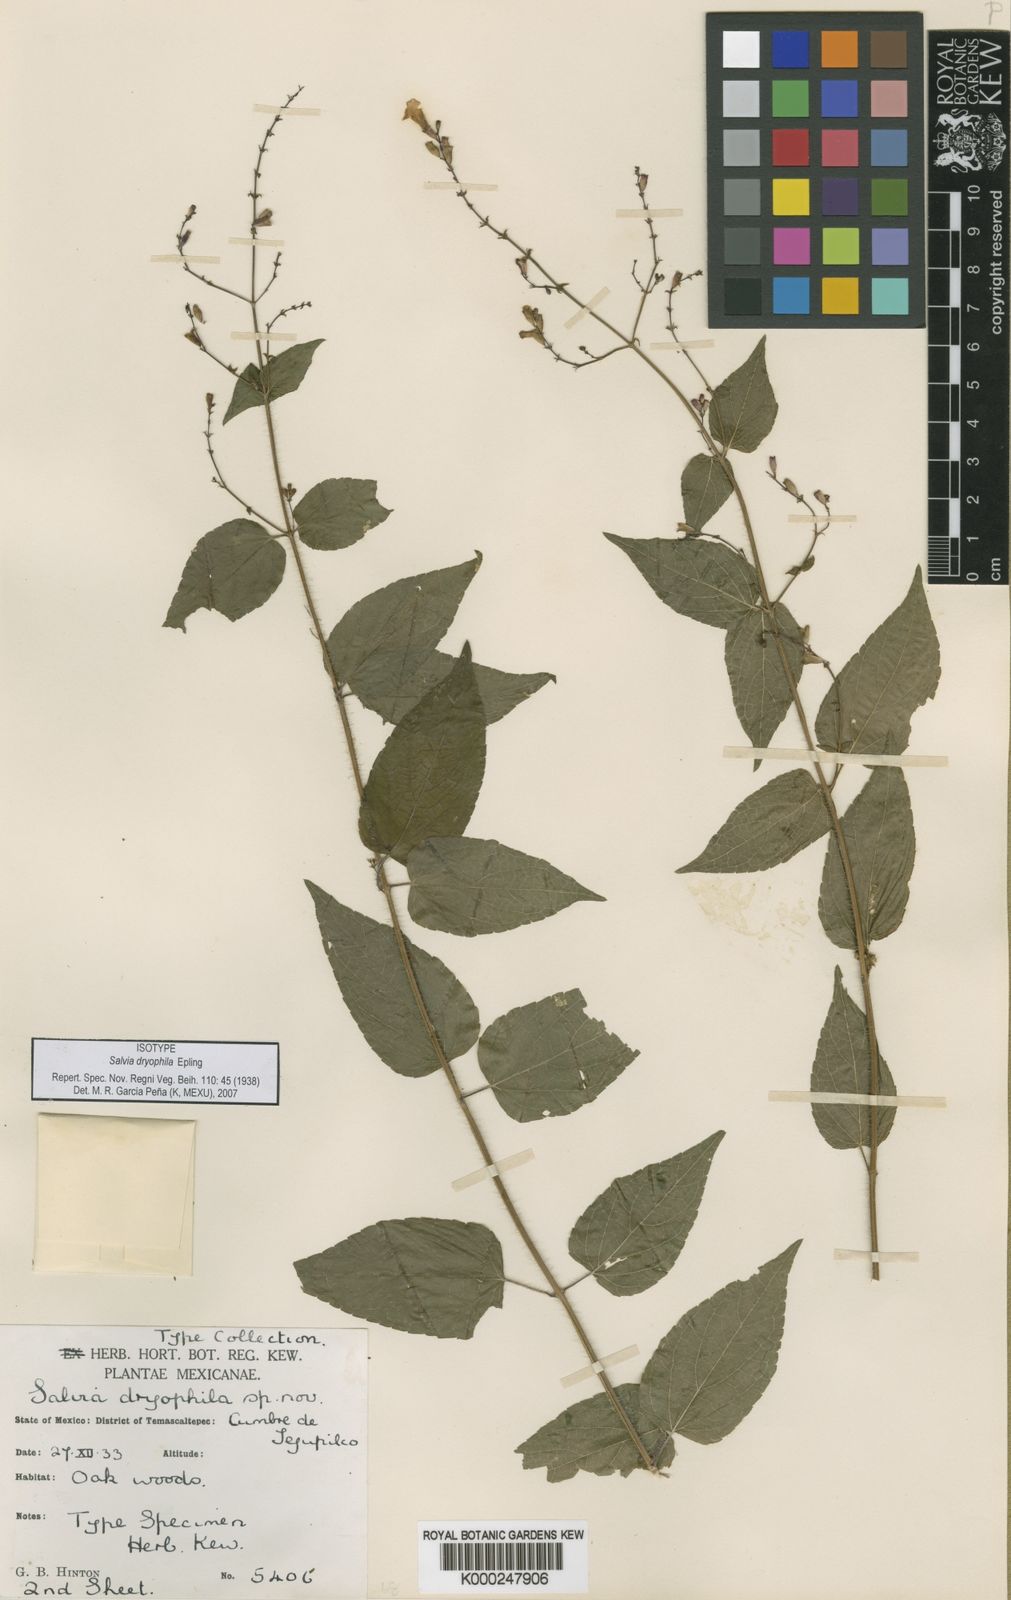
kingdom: Plantae
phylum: Tracheophyta
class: Magnoliopsida
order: Lamiales
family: Lamiaceae
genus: Salvia
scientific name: Salvia dryophila
